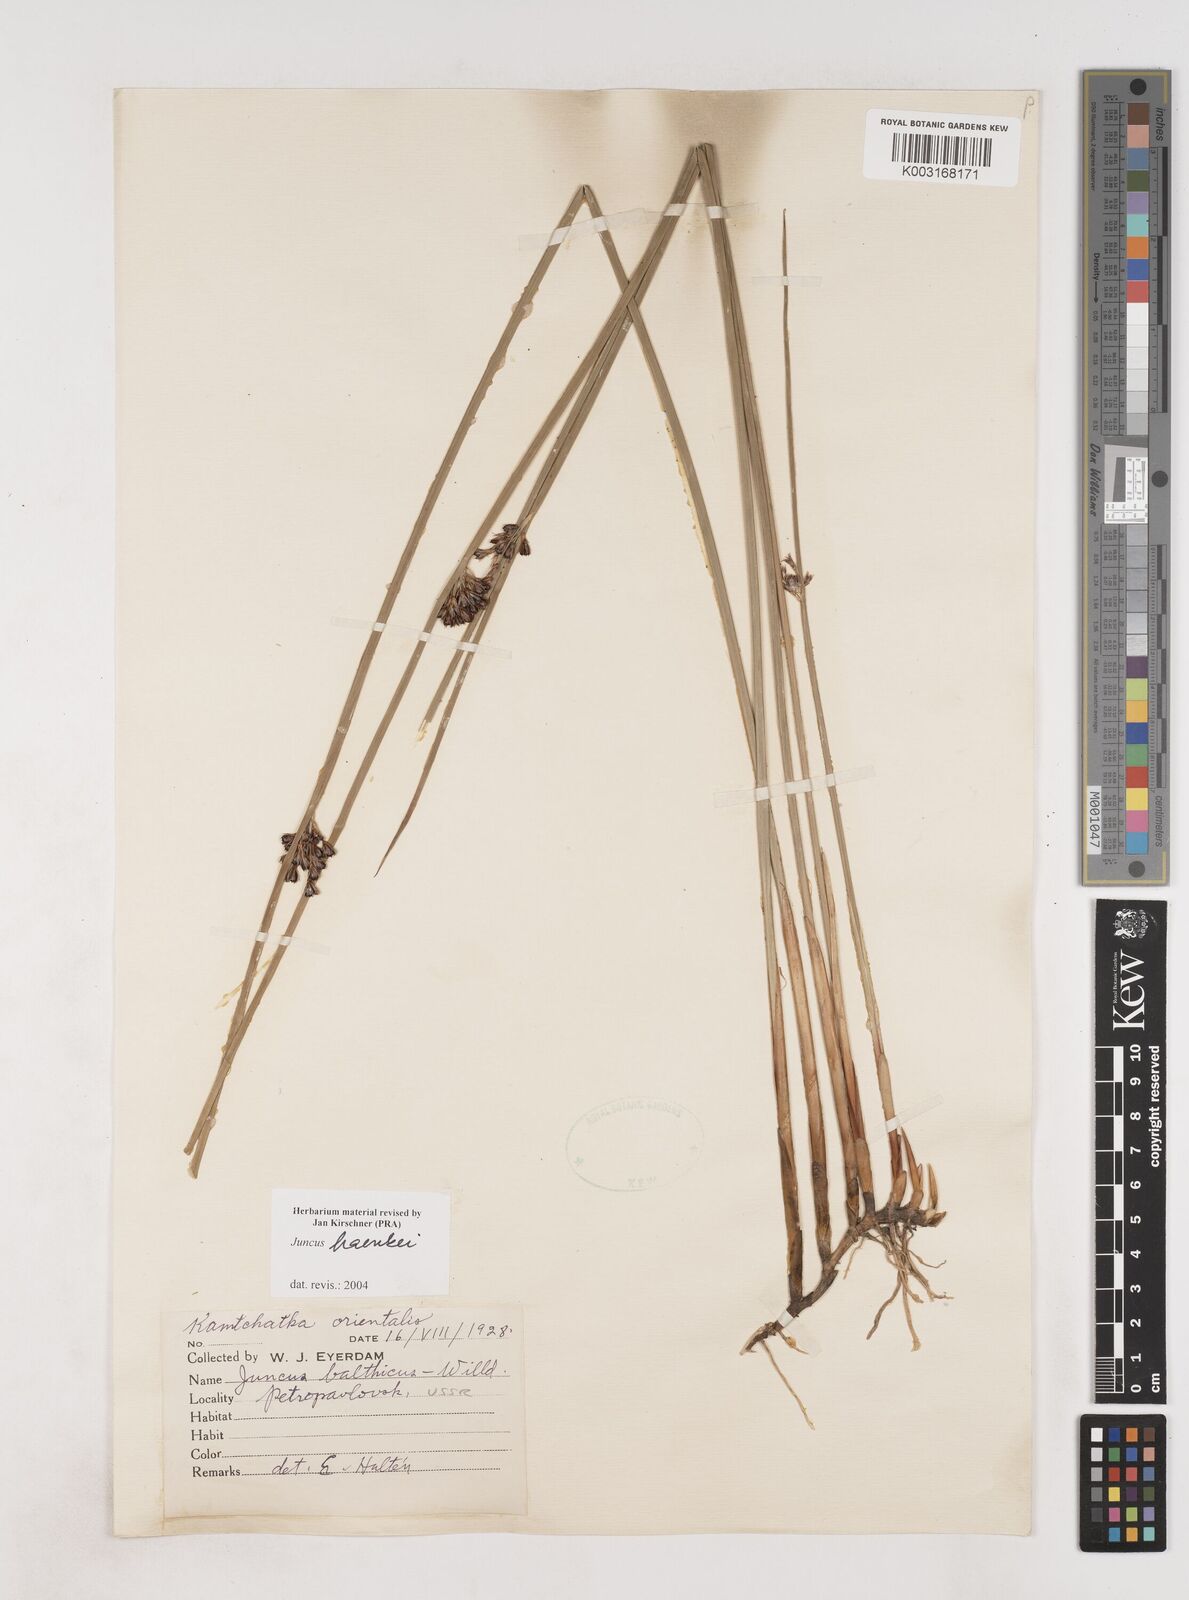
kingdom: Plantae
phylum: Tracheophyta
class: Liliopsida
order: Poales
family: Juncaceae
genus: Juncus
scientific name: Juncus balticus
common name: Baltic rush
